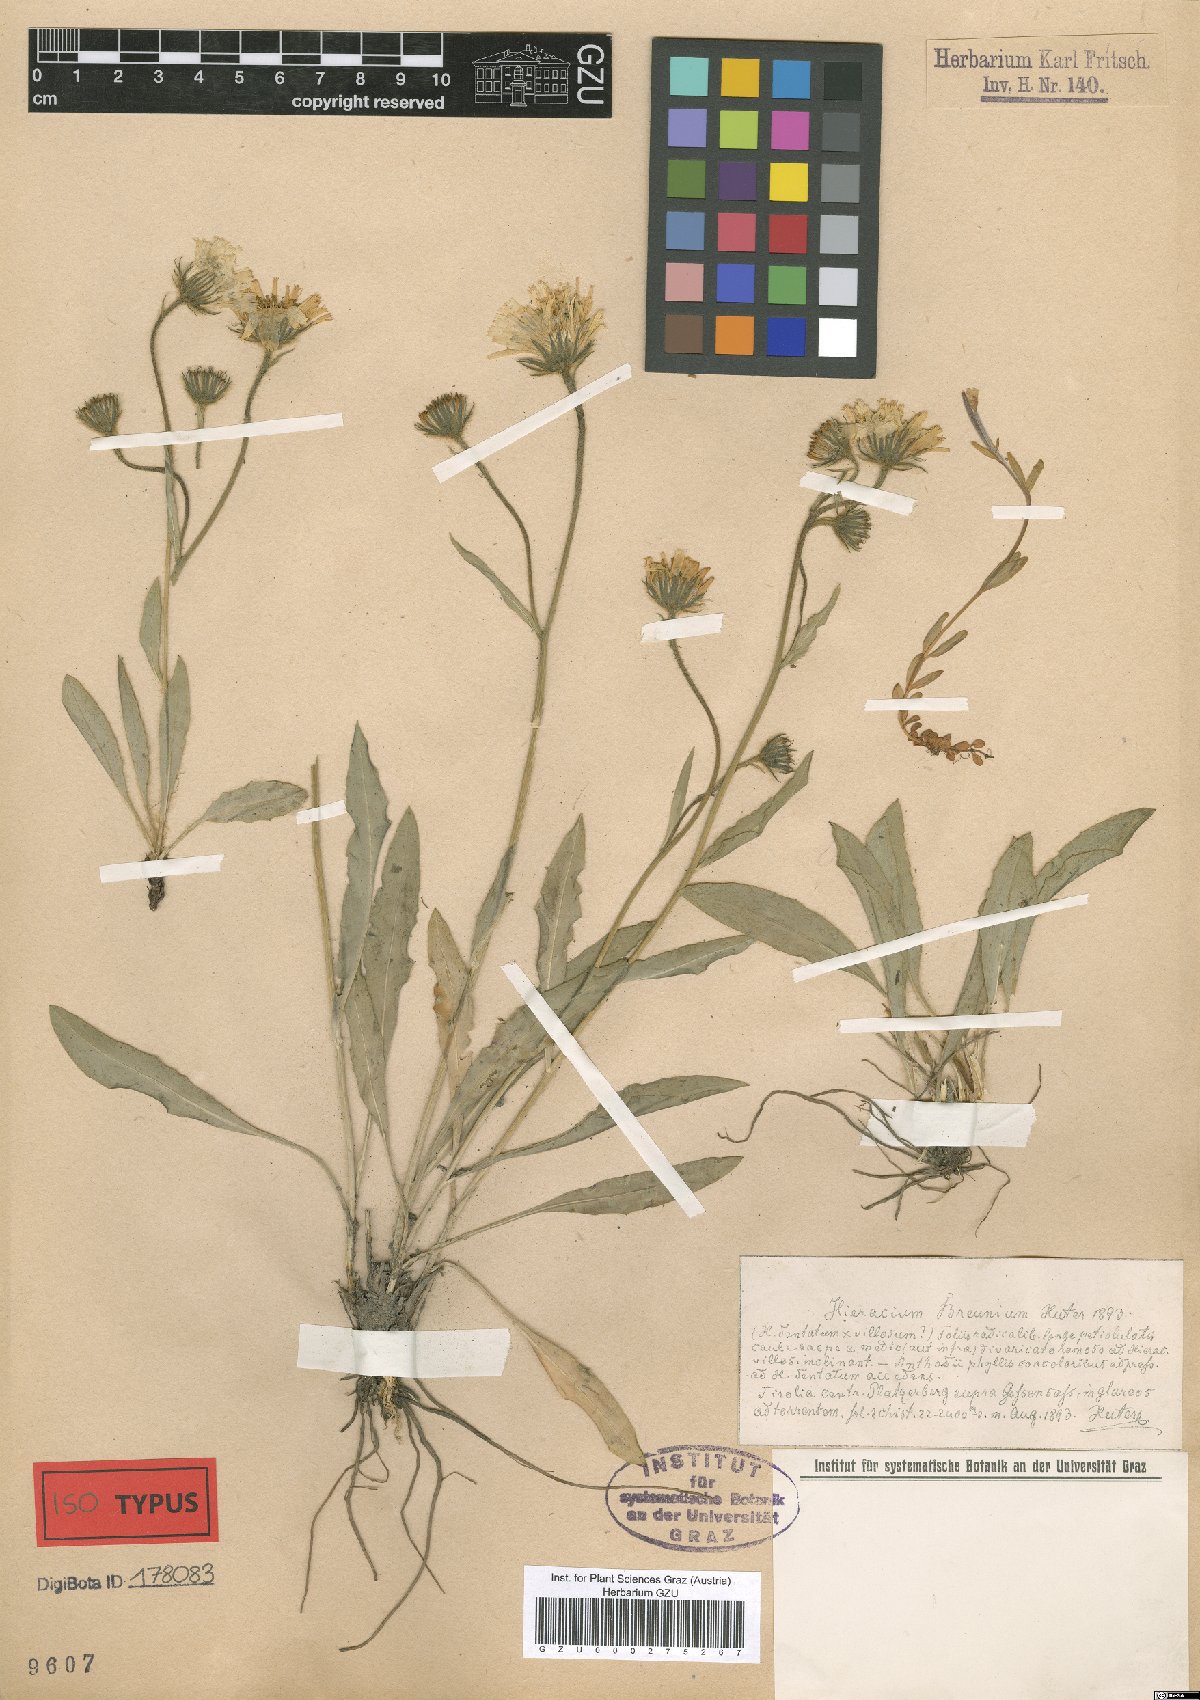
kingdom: Plantae
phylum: Tracheophyta
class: Magnoliopsida
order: Asterales
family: Asteraceae
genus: Hieracium
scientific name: Hieracium dentatum
